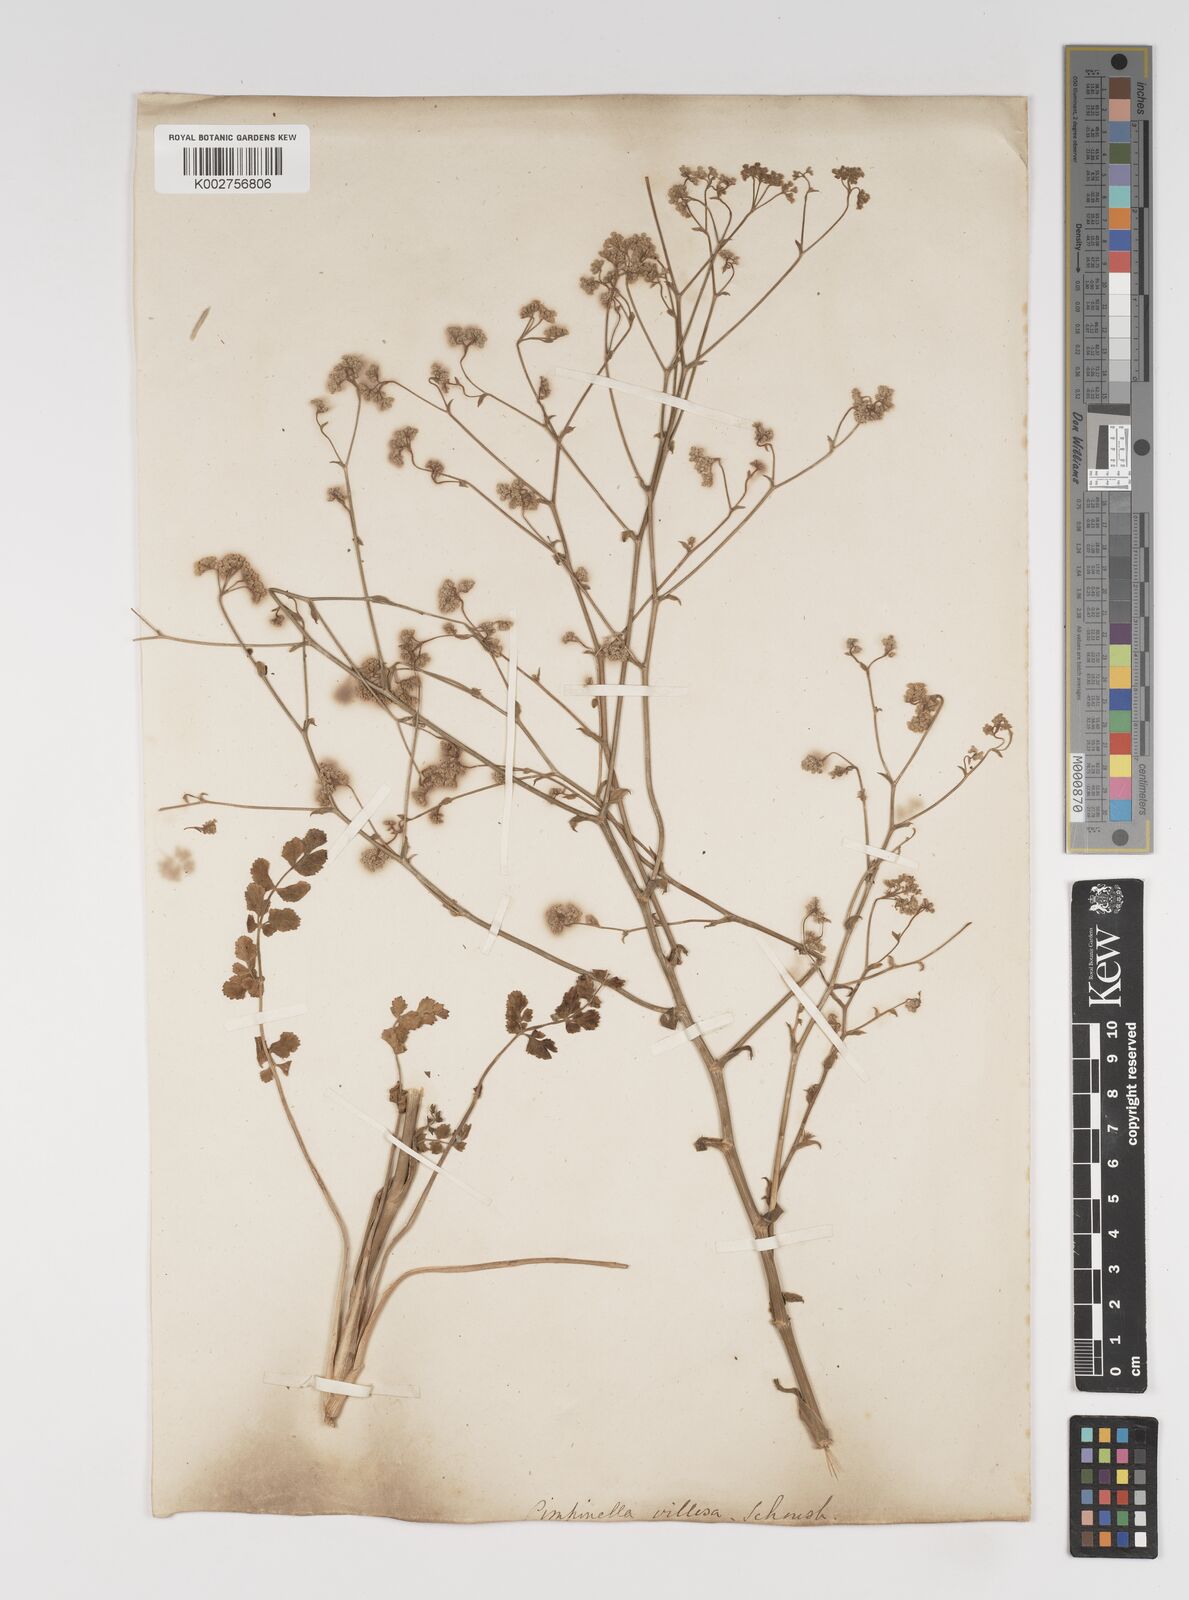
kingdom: Plantae
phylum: Tracheophyta
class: Magnoliopsida
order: Apiales
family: Apiaceae
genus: Pimpinella
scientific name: Pimpinella major
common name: Greater burnet-saxifrage
